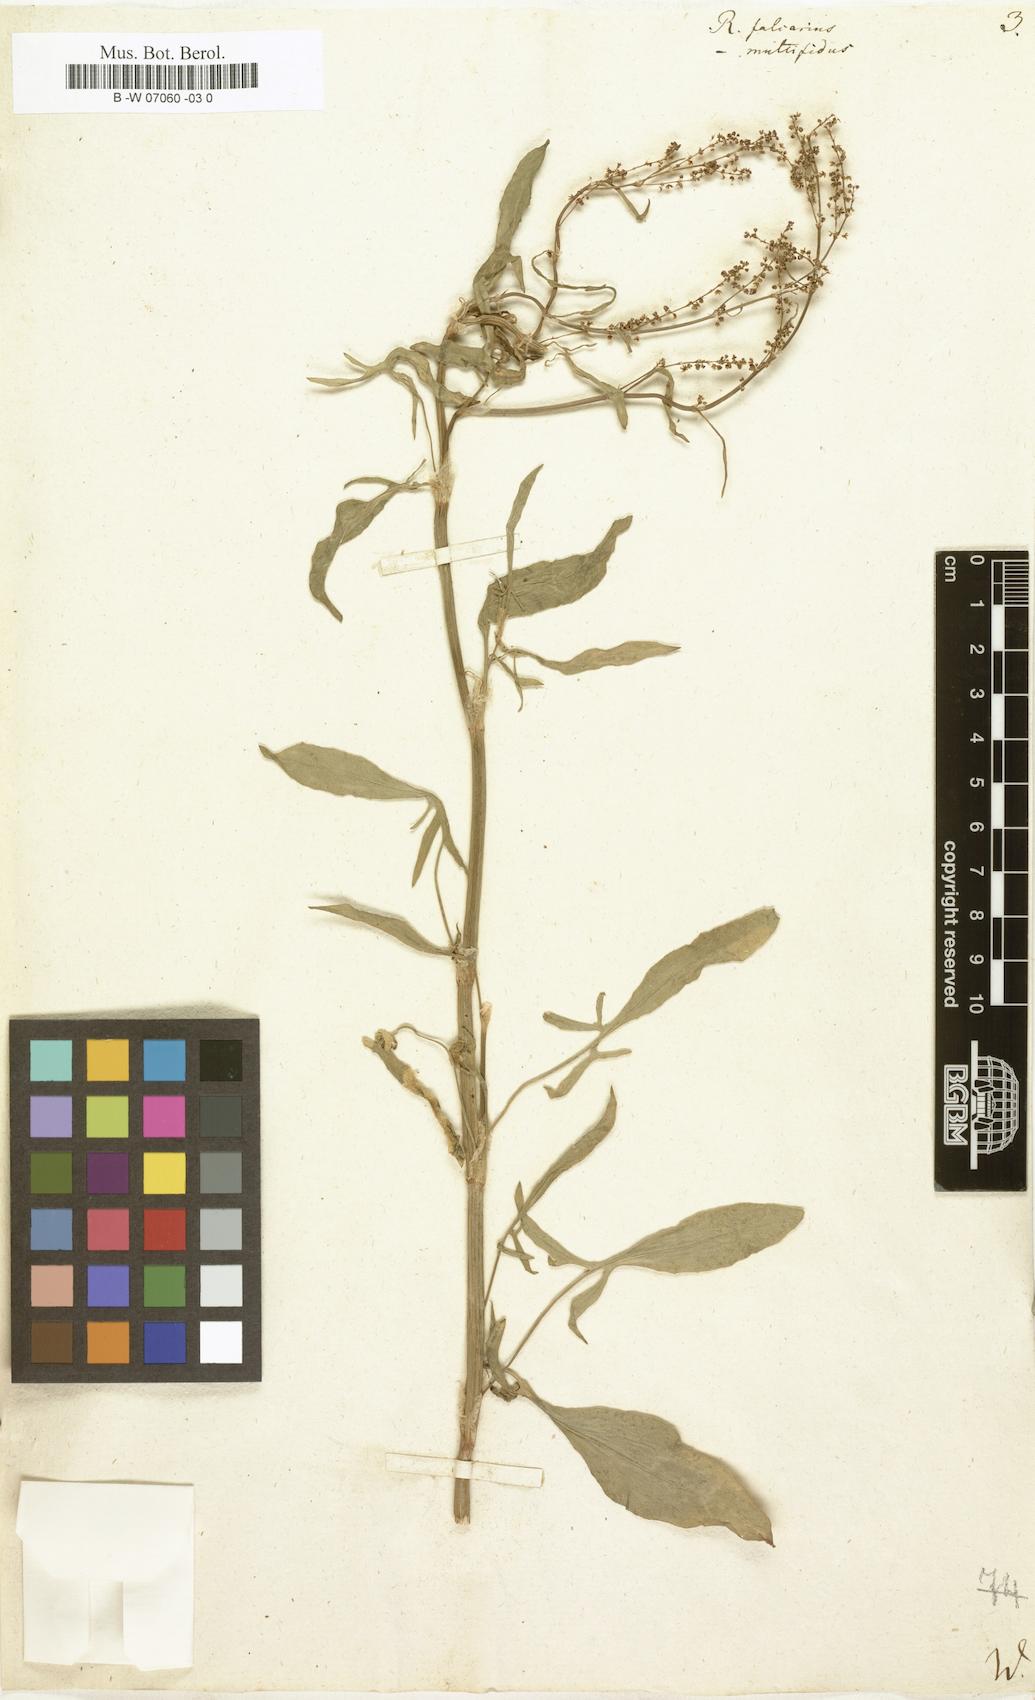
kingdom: Plantae
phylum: Tracheophyta
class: Magnoliopsida
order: Caryophyllales
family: Polygonaceae
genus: Rumex
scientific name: Rumex acetosella
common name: Common sheep sorrel
